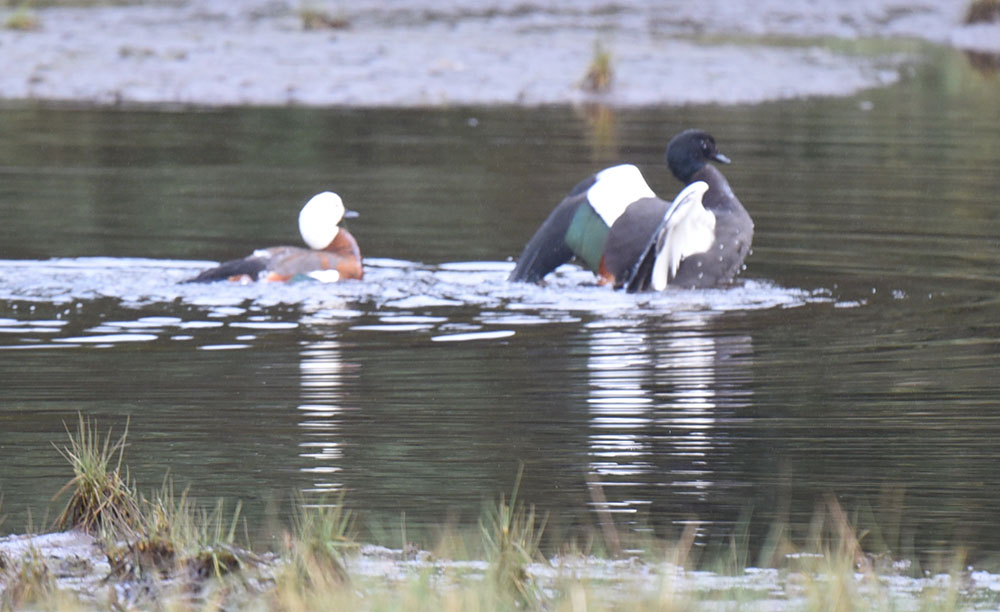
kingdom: Animalia
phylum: Chordata
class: Aves
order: Anseriformes
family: Anatidae
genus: Tadorna
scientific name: Tadorna variegata
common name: Paradise shelduck
